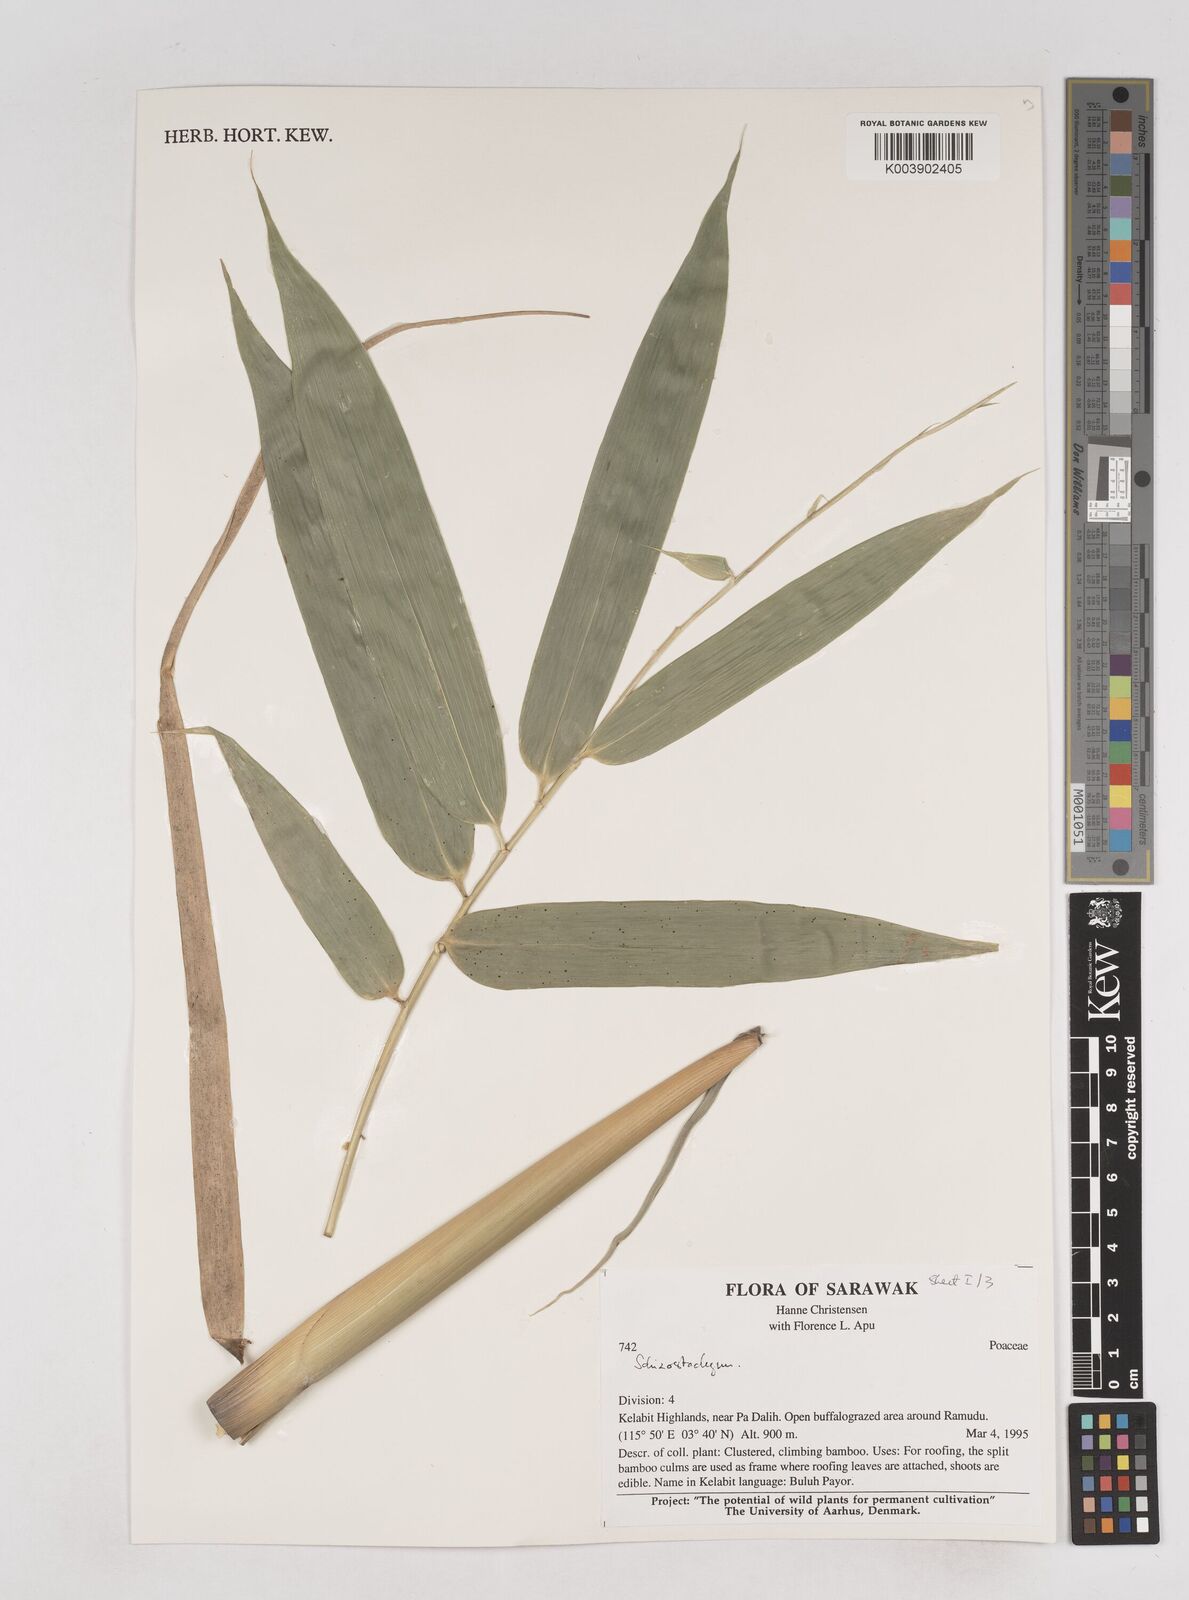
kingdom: Plantae
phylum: Tracheophyta
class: Liliopsida
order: Poales
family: Poaceae
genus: Schizostachyum
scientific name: Schizostachyum
